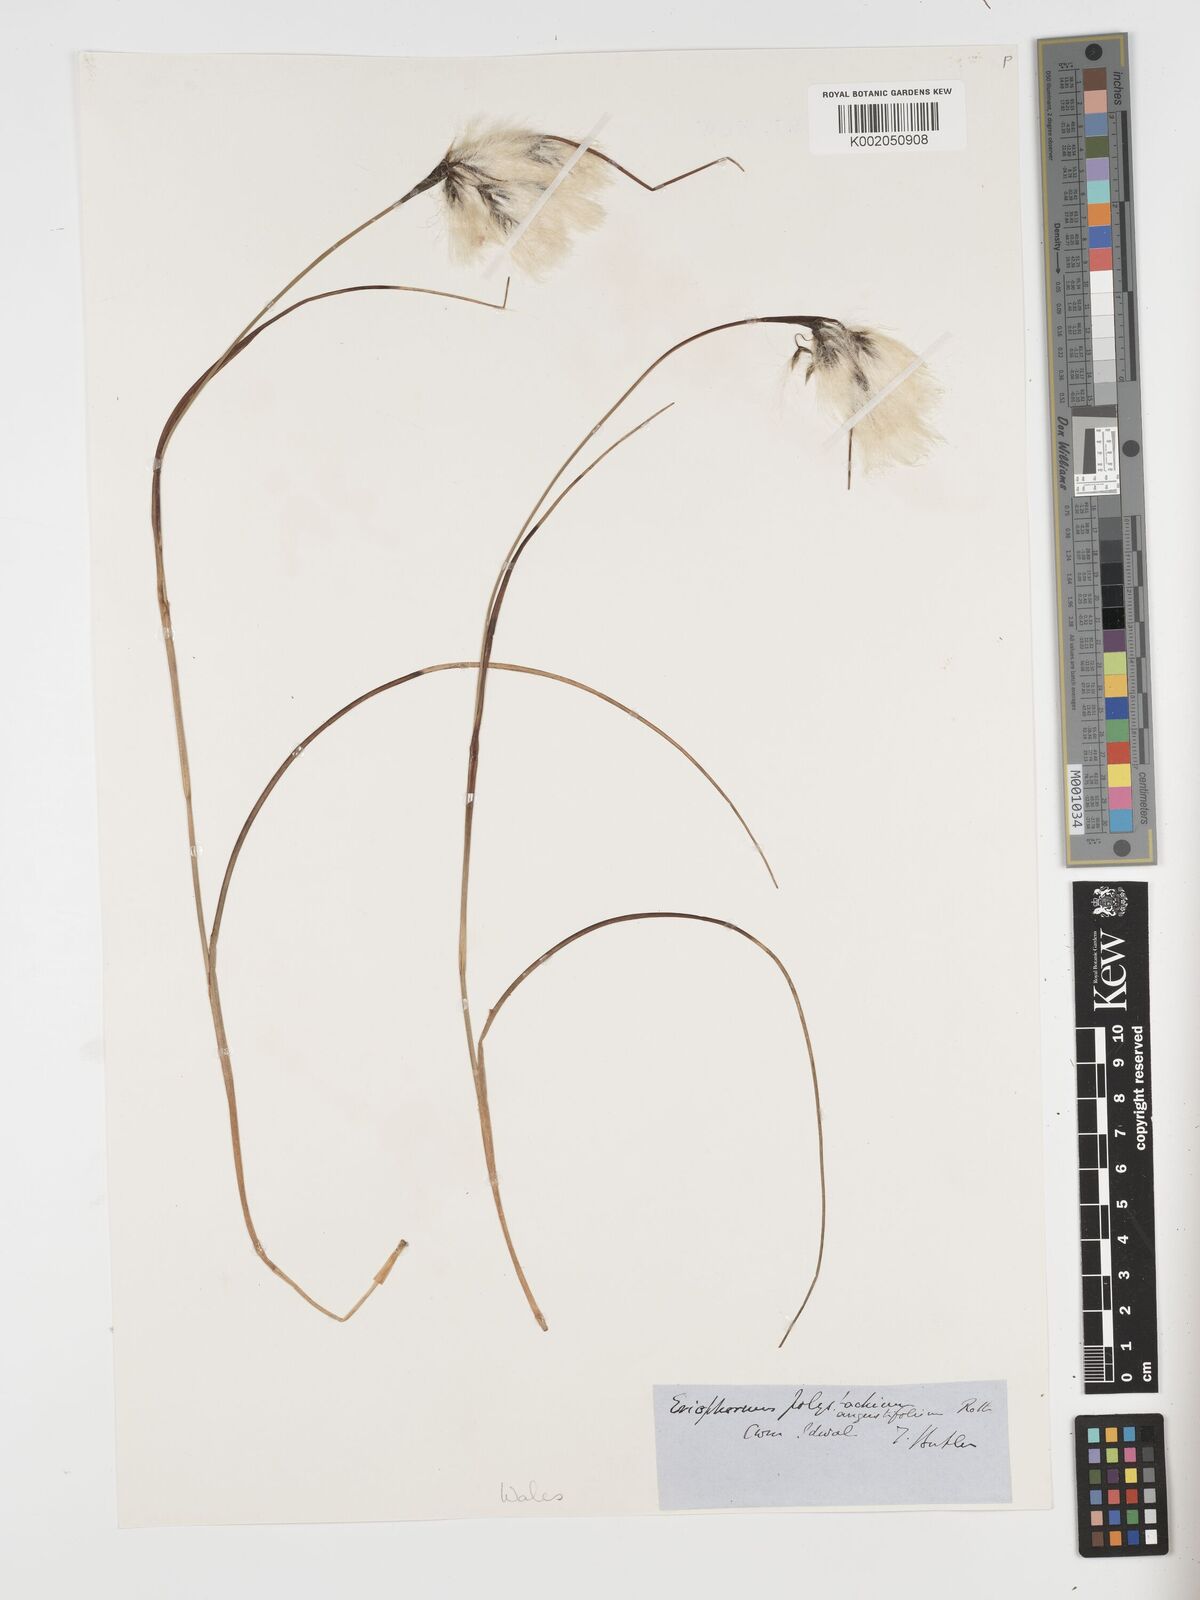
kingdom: Plantae
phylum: Tracheophyta
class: Liliopsida
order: Poales
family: Cyperaceae
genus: Eriophorum
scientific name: Eriophorum angustifolium
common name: Common cottongrass
